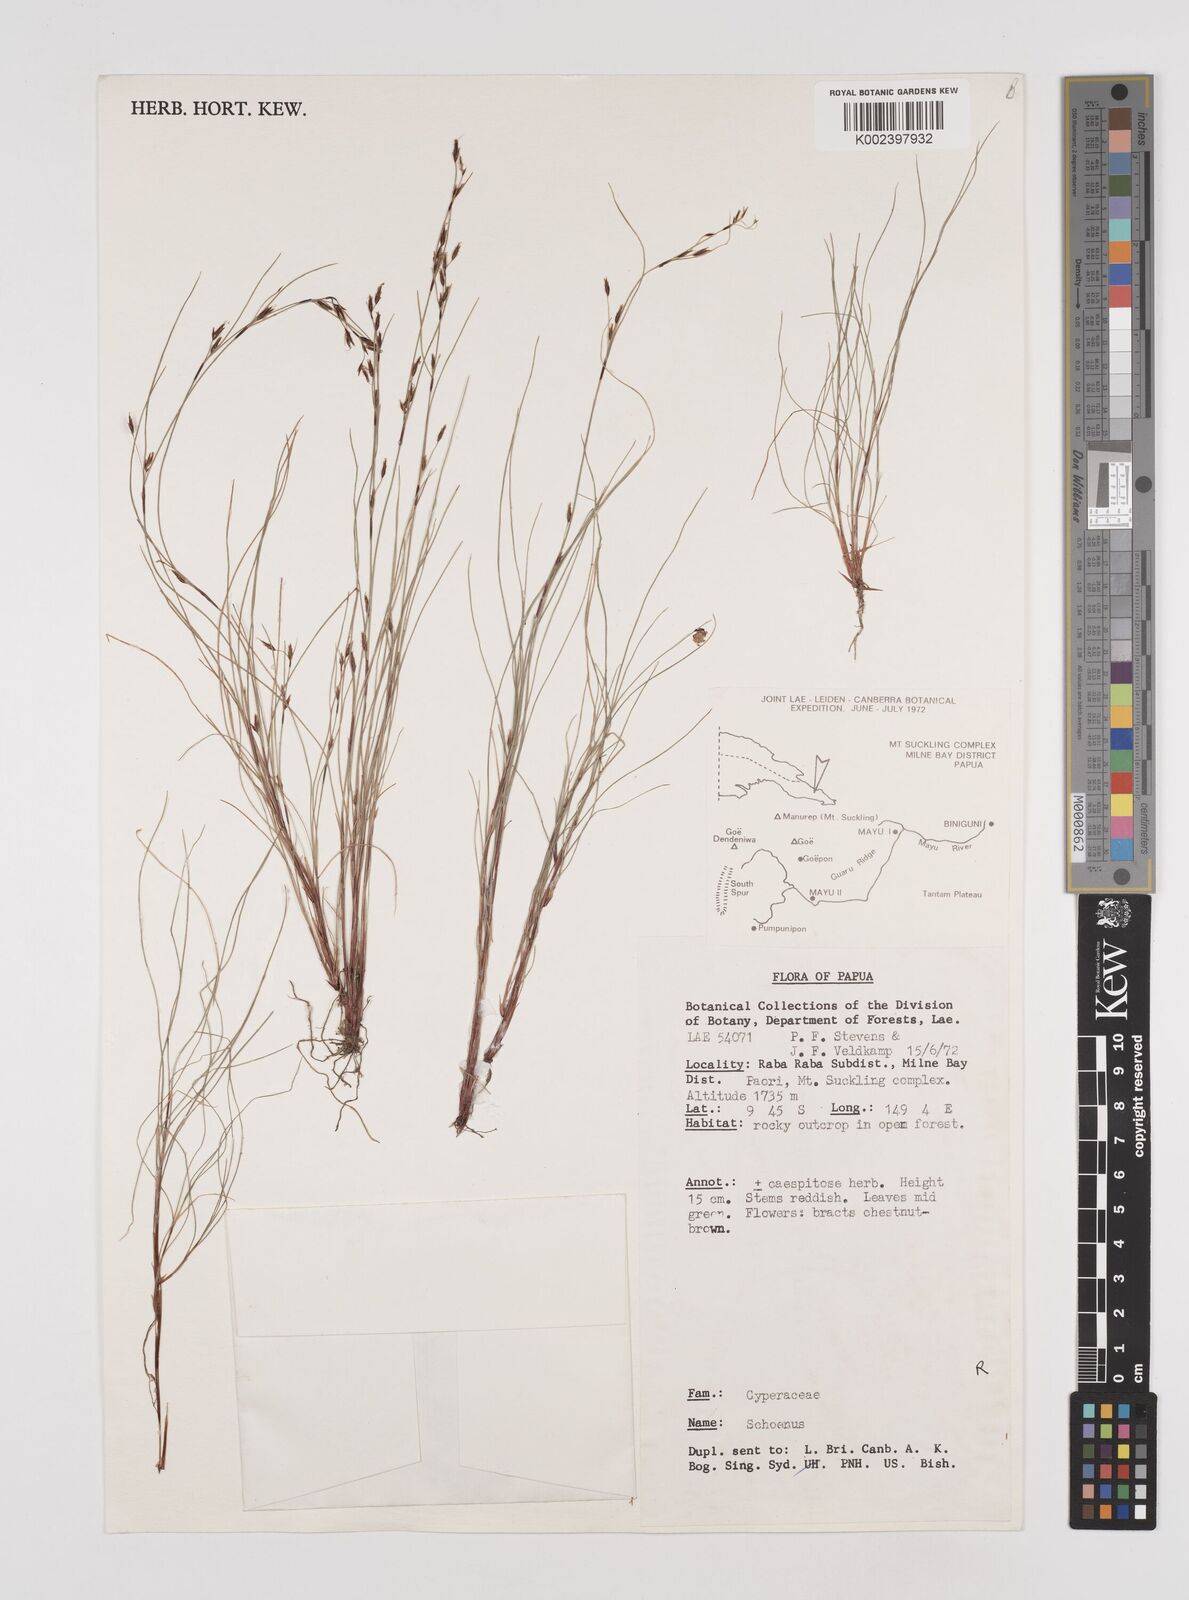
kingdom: Plantae
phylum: Tracheophyta
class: Liliopsida
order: Poales
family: Cyperaceae
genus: Schoenus
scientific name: Schoenus
